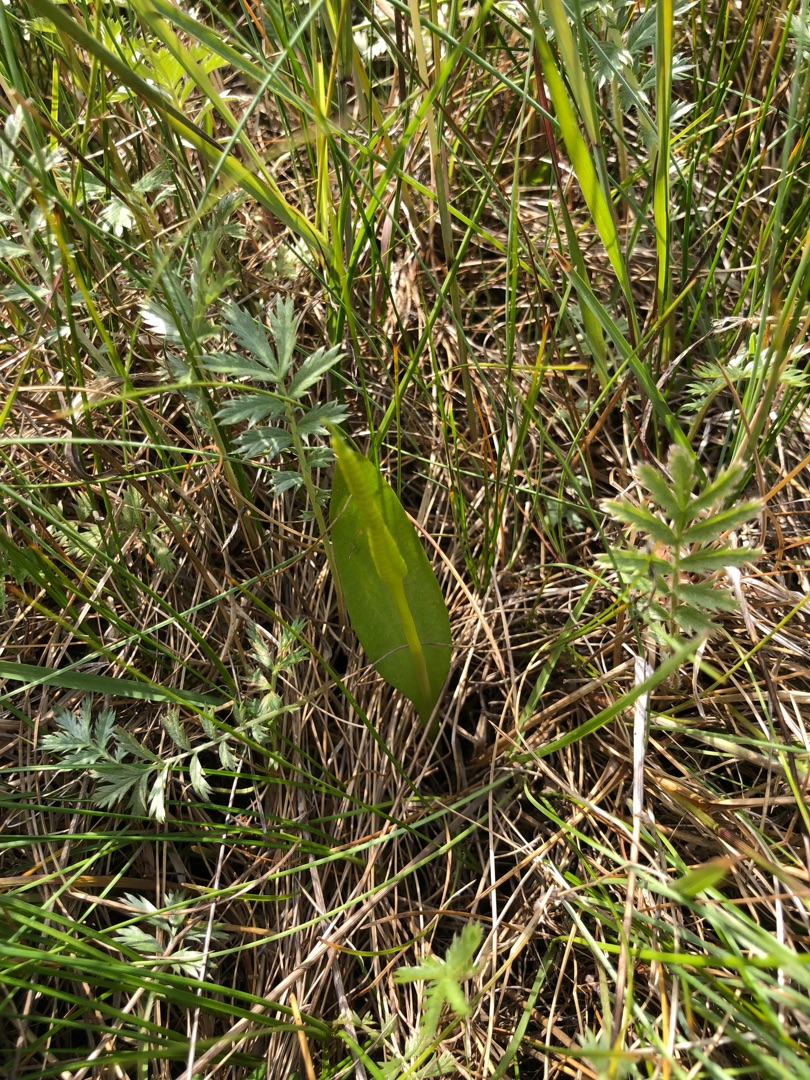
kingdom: Plantae
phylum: Tracheophyta
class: Polypodiopsida
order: Ophioglossales
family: Ophioglossaceae
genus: Ophioglossum
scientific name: Ophioglossum vulgatum
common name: Slangetunge
